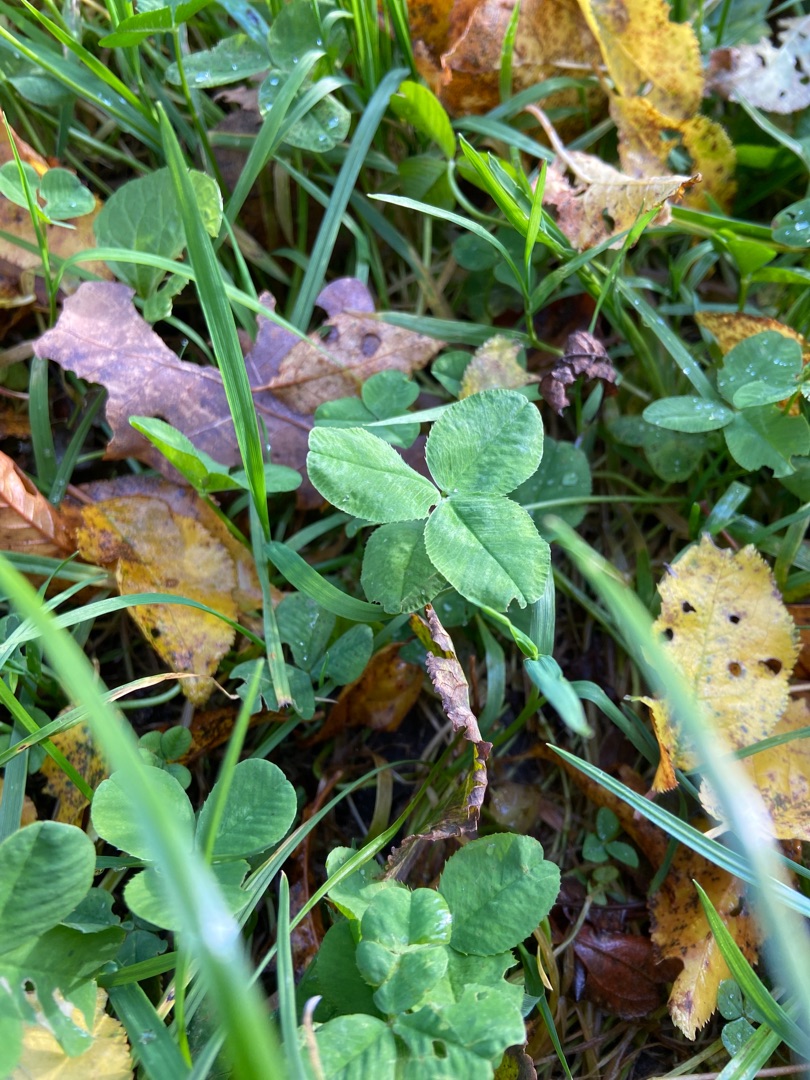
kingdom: Plantae
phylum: Tracheophyta
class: Magnoliopsida
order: Fabales
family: Fabaceae
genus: Trifolium
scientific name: Trifolium repens
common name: Hvid-kløver
